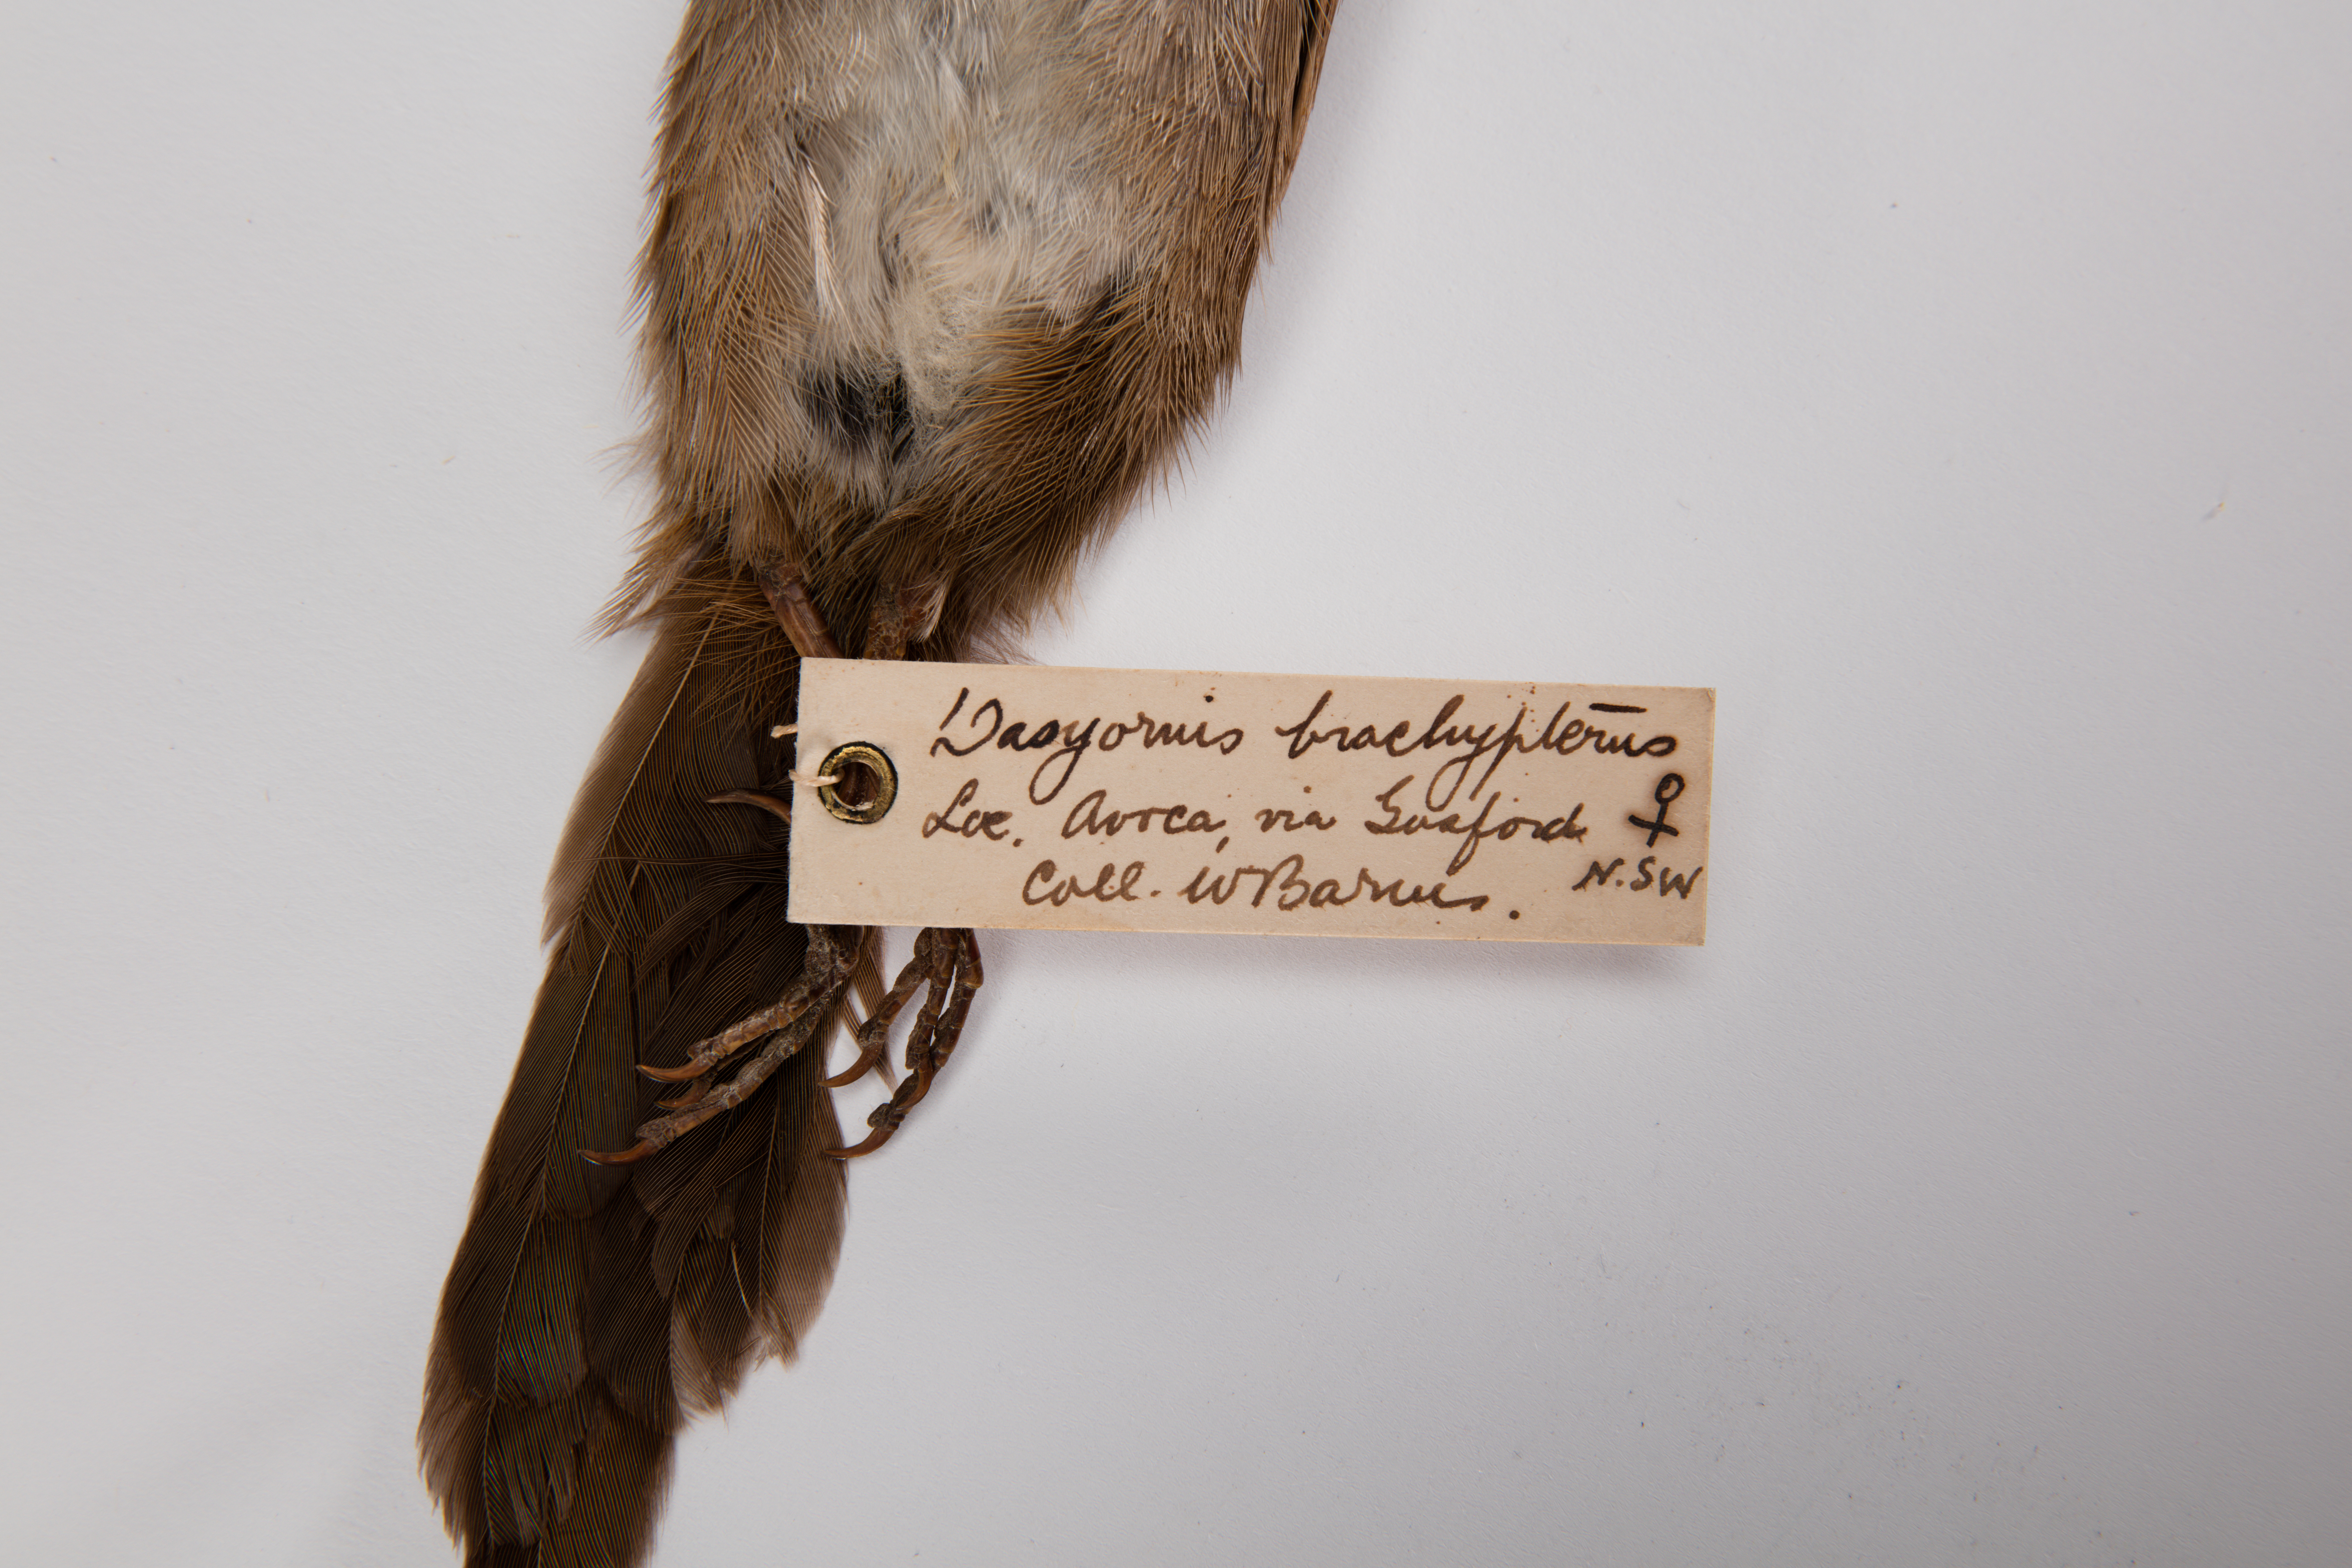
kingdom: Animalia
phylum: Chordata
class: Aves
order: Passeriformes
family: Dasyornithidae
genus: Dasyornis
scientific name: Dasyornis brachypterus
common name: Eastern bristlebird
